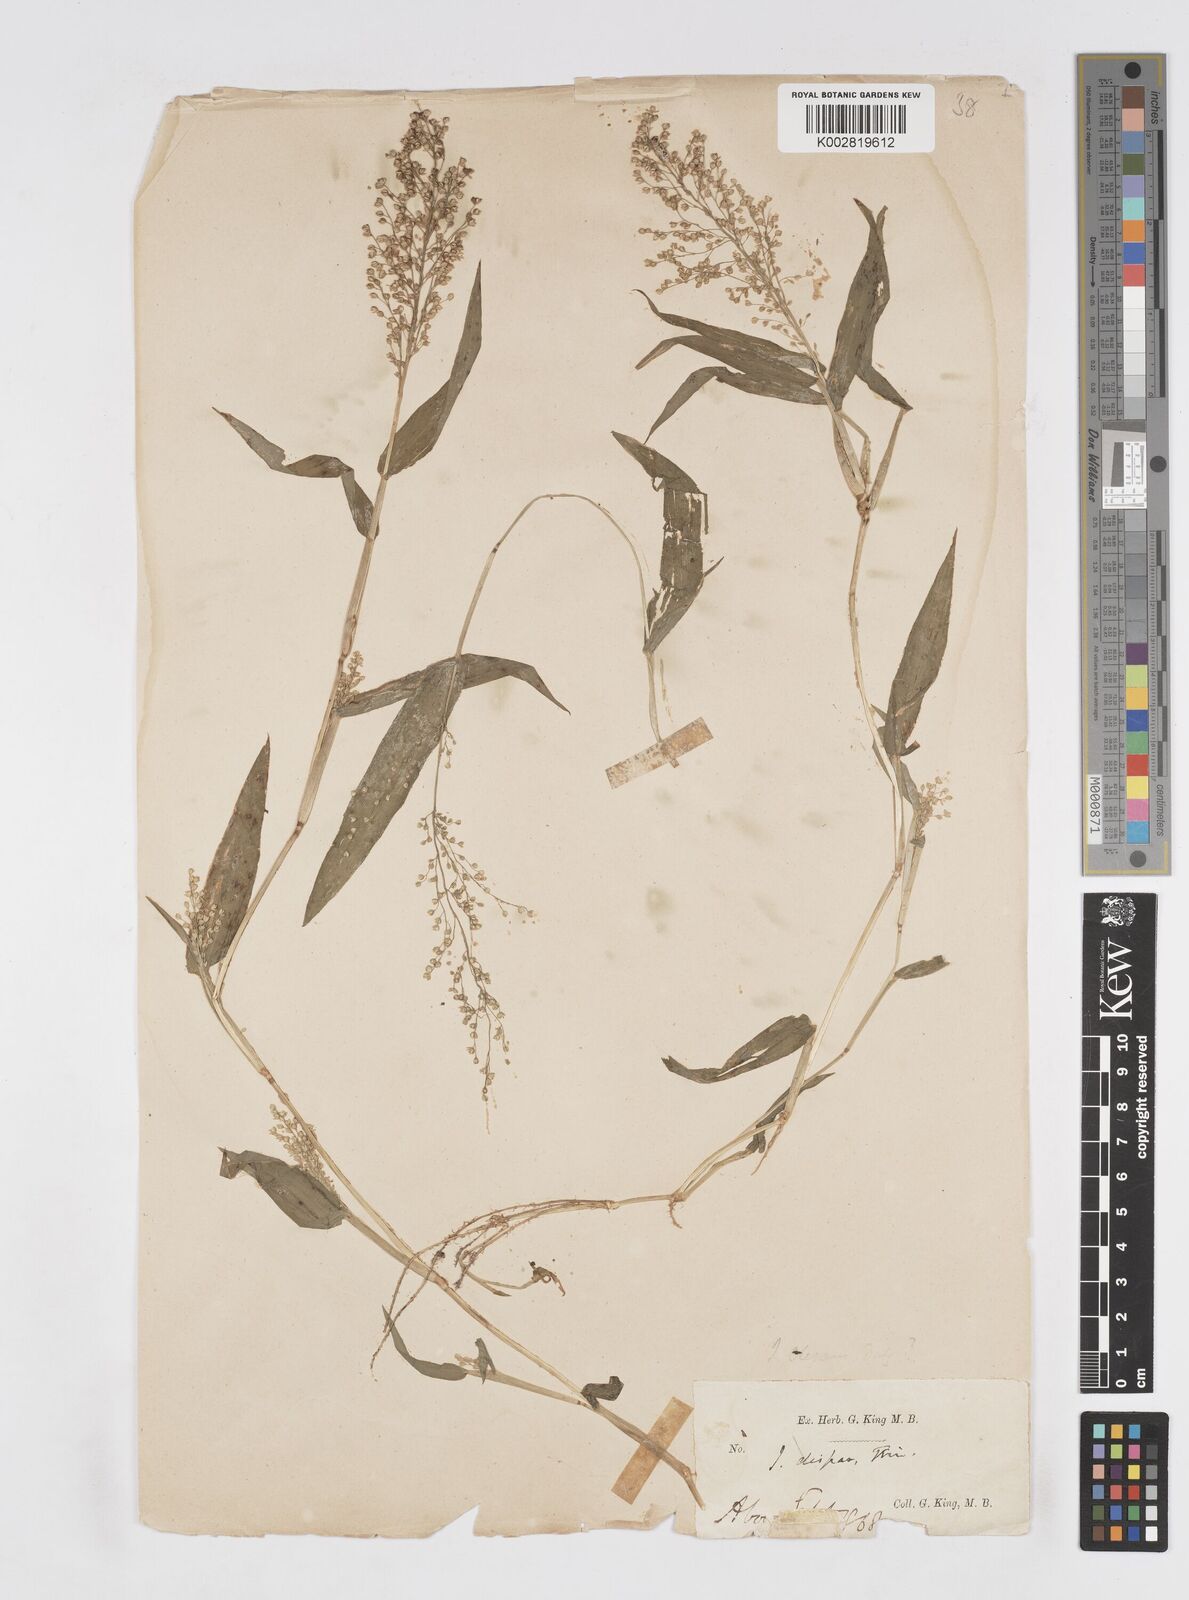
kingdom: Plantae
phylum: Tracheophyta
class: Liliopsida
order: Poales
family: Poaceae
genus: Isachne
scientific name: Isachne globosa
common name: Swamp millet
